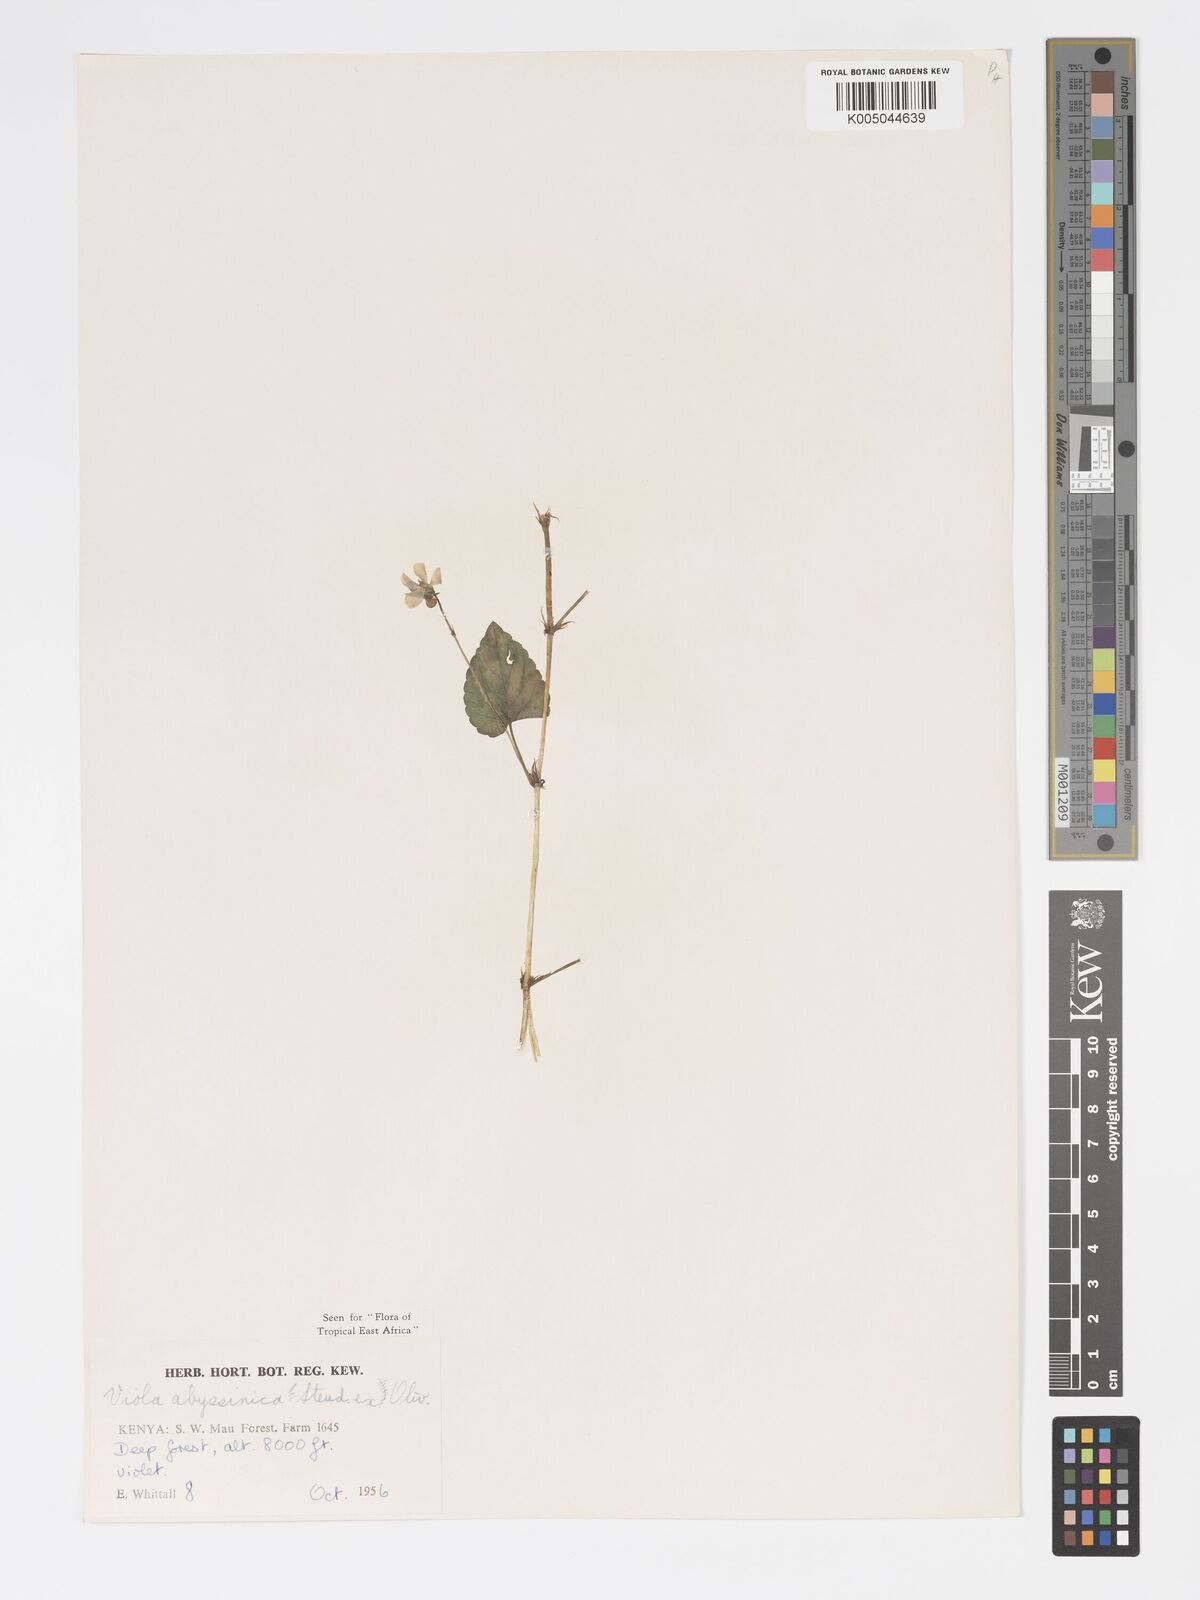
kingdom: Plantae
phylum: Tracheophyta
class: Magnoliopsida
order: Malpighiales
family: Violaceae
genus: Viola
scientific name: Viola abyssinica
